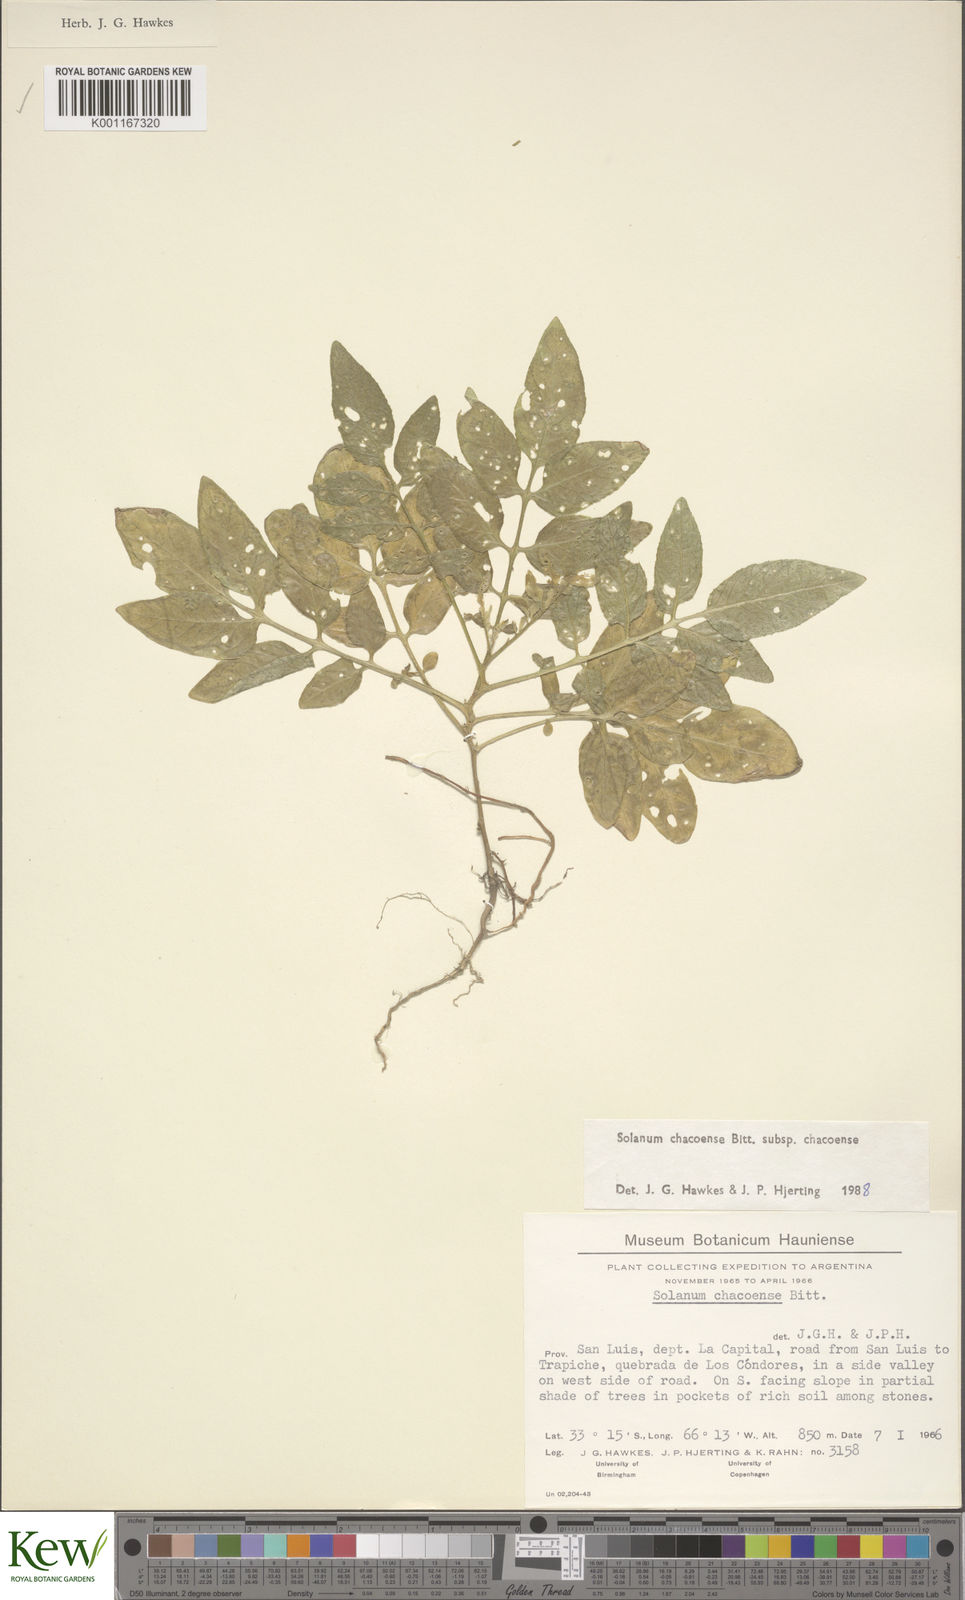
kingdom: Plantae
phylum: Tracheophyta
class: Magnoliopsida
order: Solanales
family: Solanaceae
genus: Solanum
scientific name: Solanum chacoense
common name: Chaco potato
